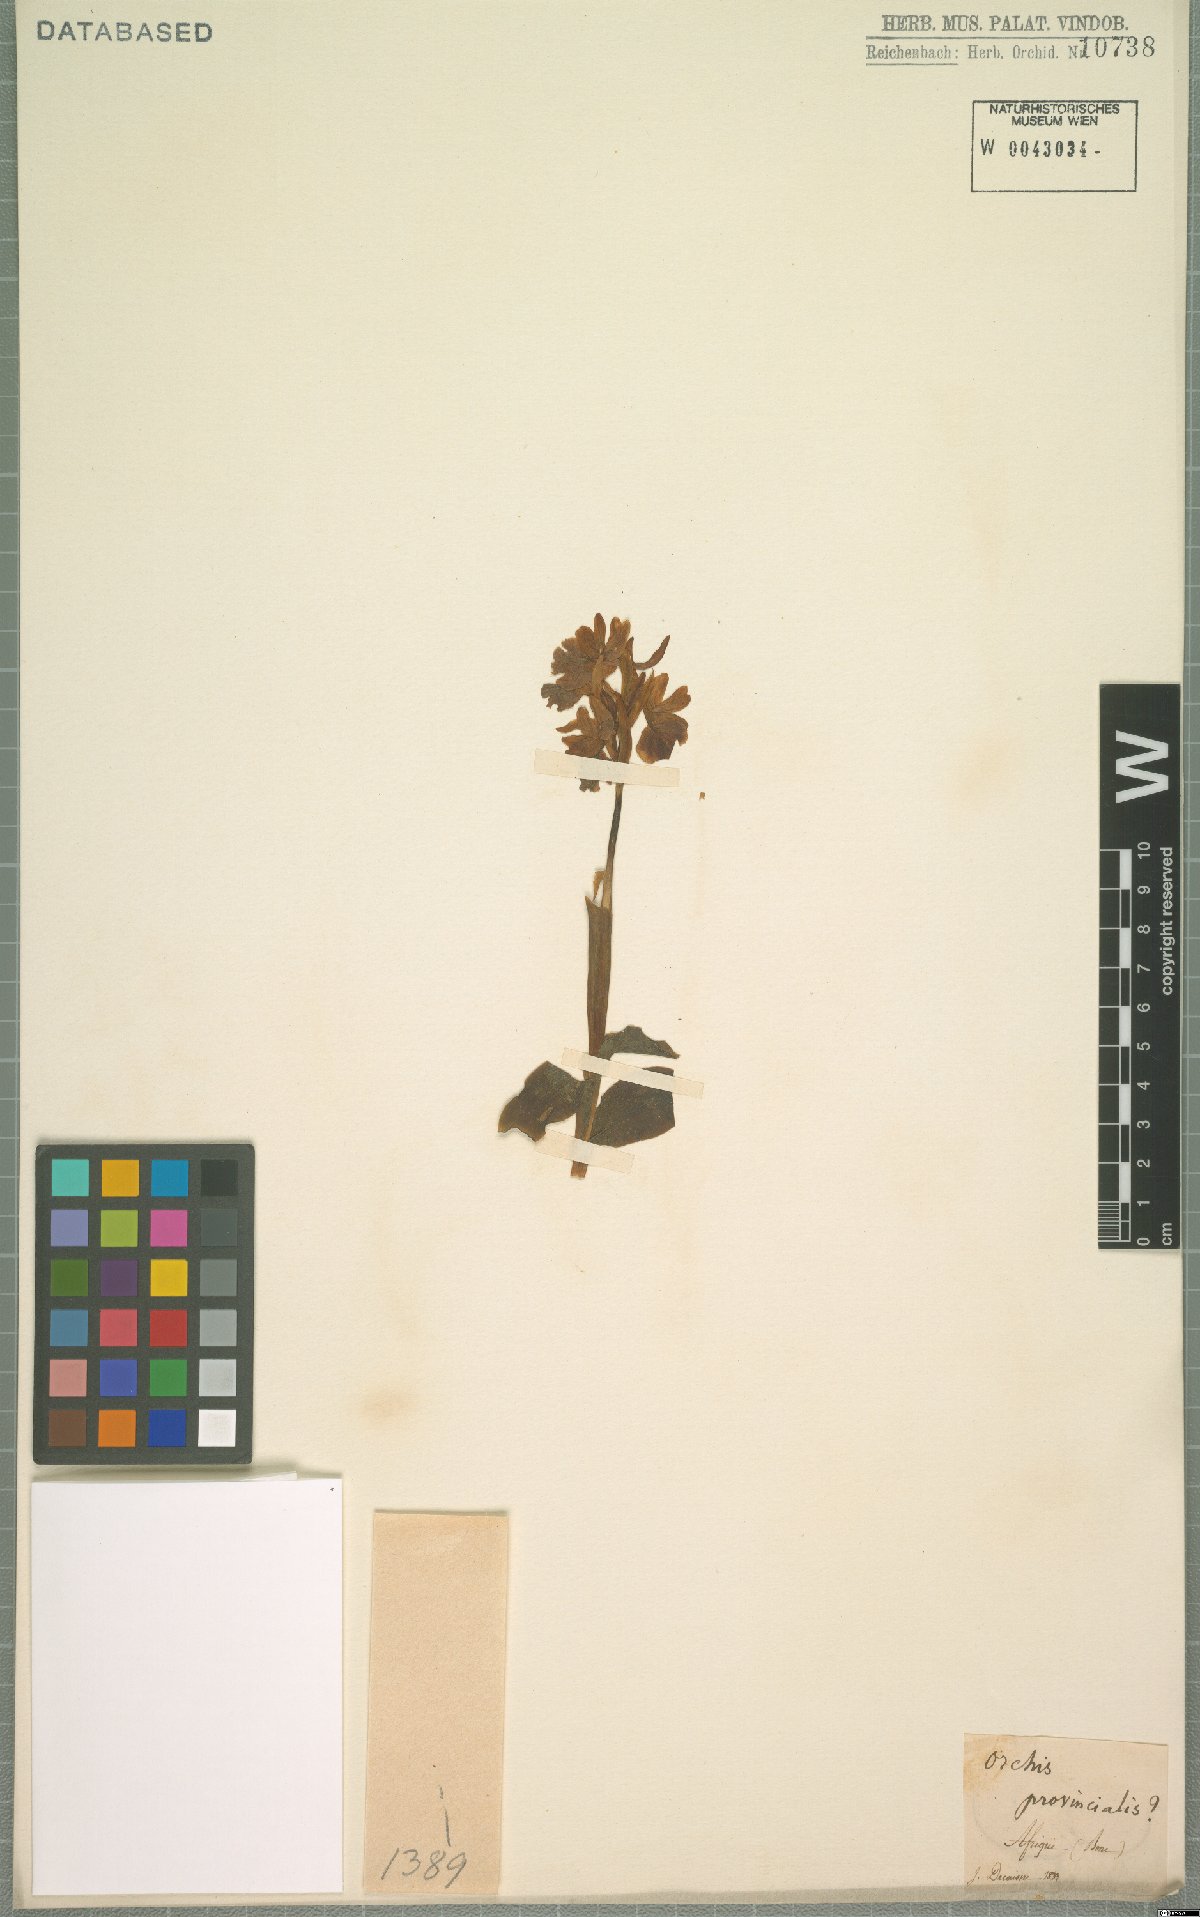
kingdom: Plantae
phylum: Tracheophyta
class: Liliopsida
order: Asparagales
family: Orchidaceae
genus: Orchis
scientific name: Orchis provincialis
